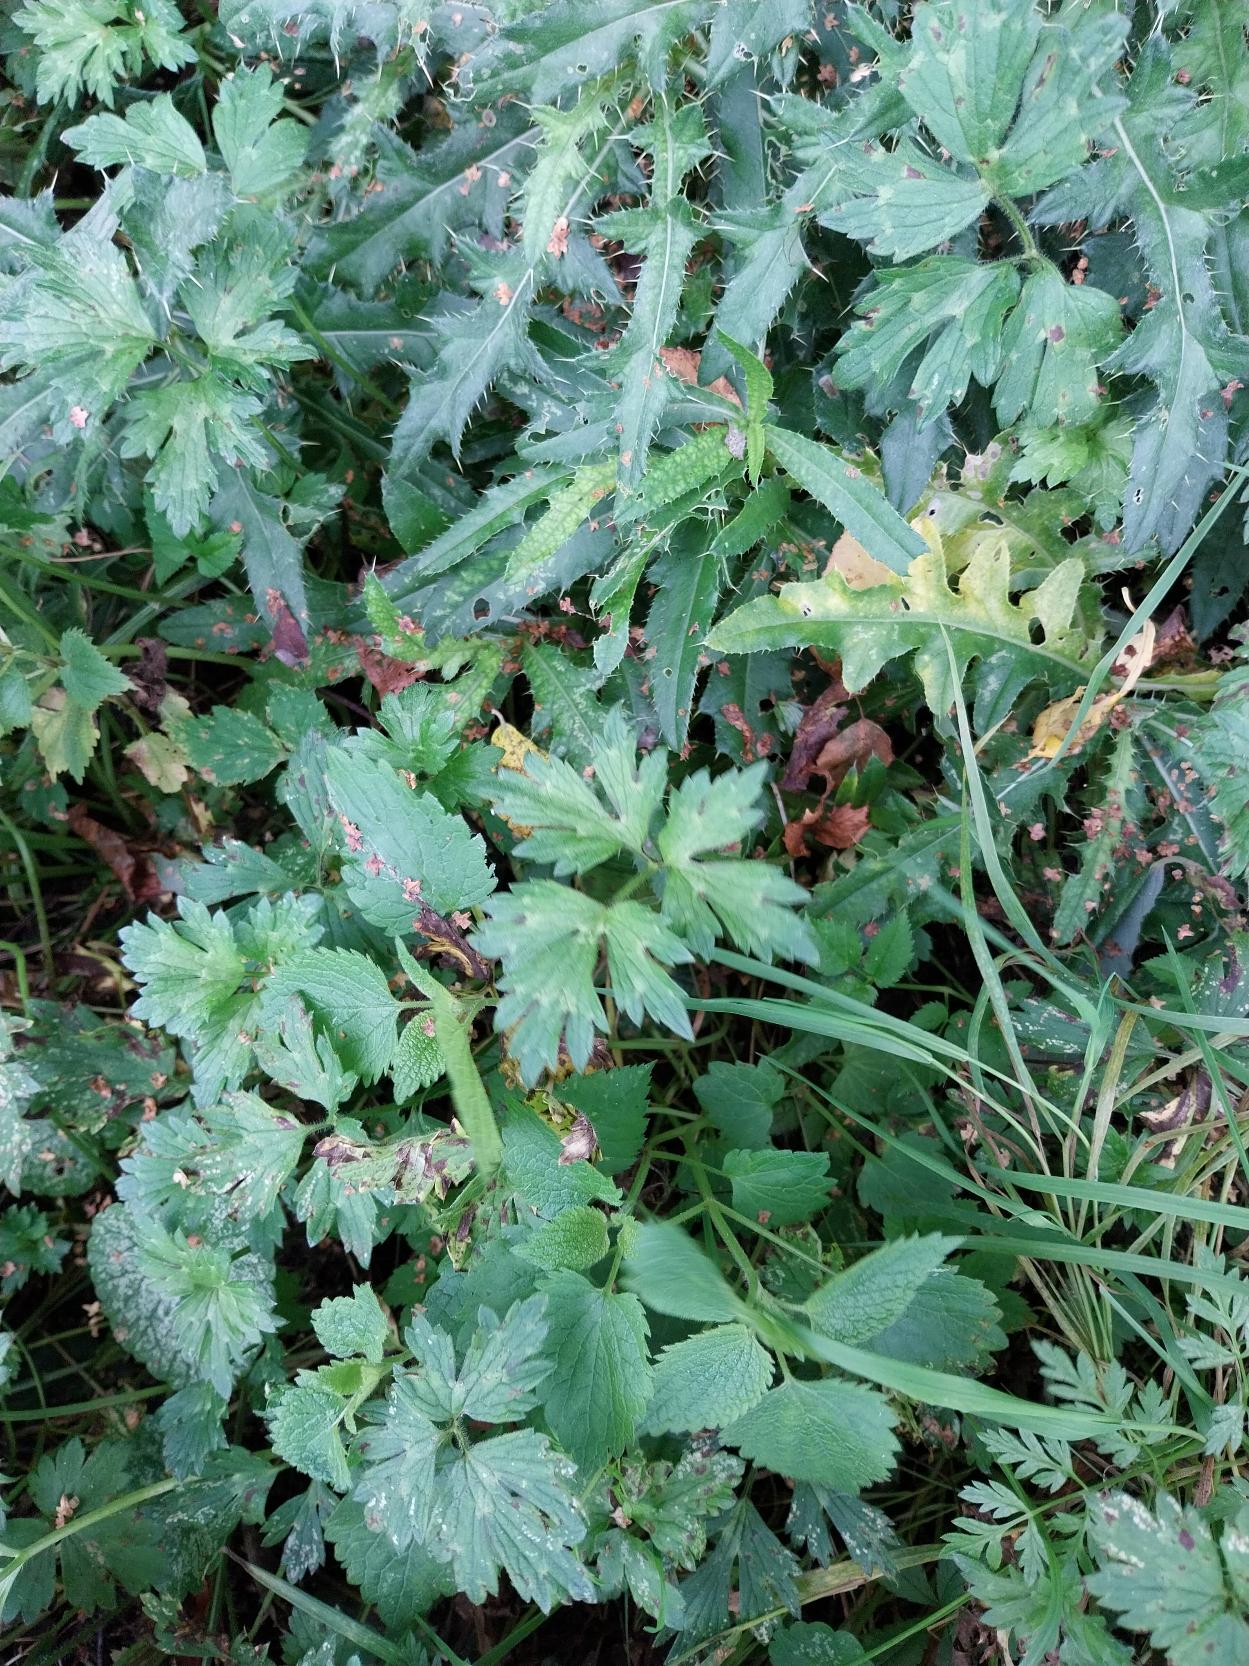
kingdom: Plantae
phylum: Tracheophyta
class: Magnoliopsida
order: Ranunculales
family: Ranunculaceae
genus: Ranunculus
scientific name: Ranunculus repens
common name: Lav ranunkel
